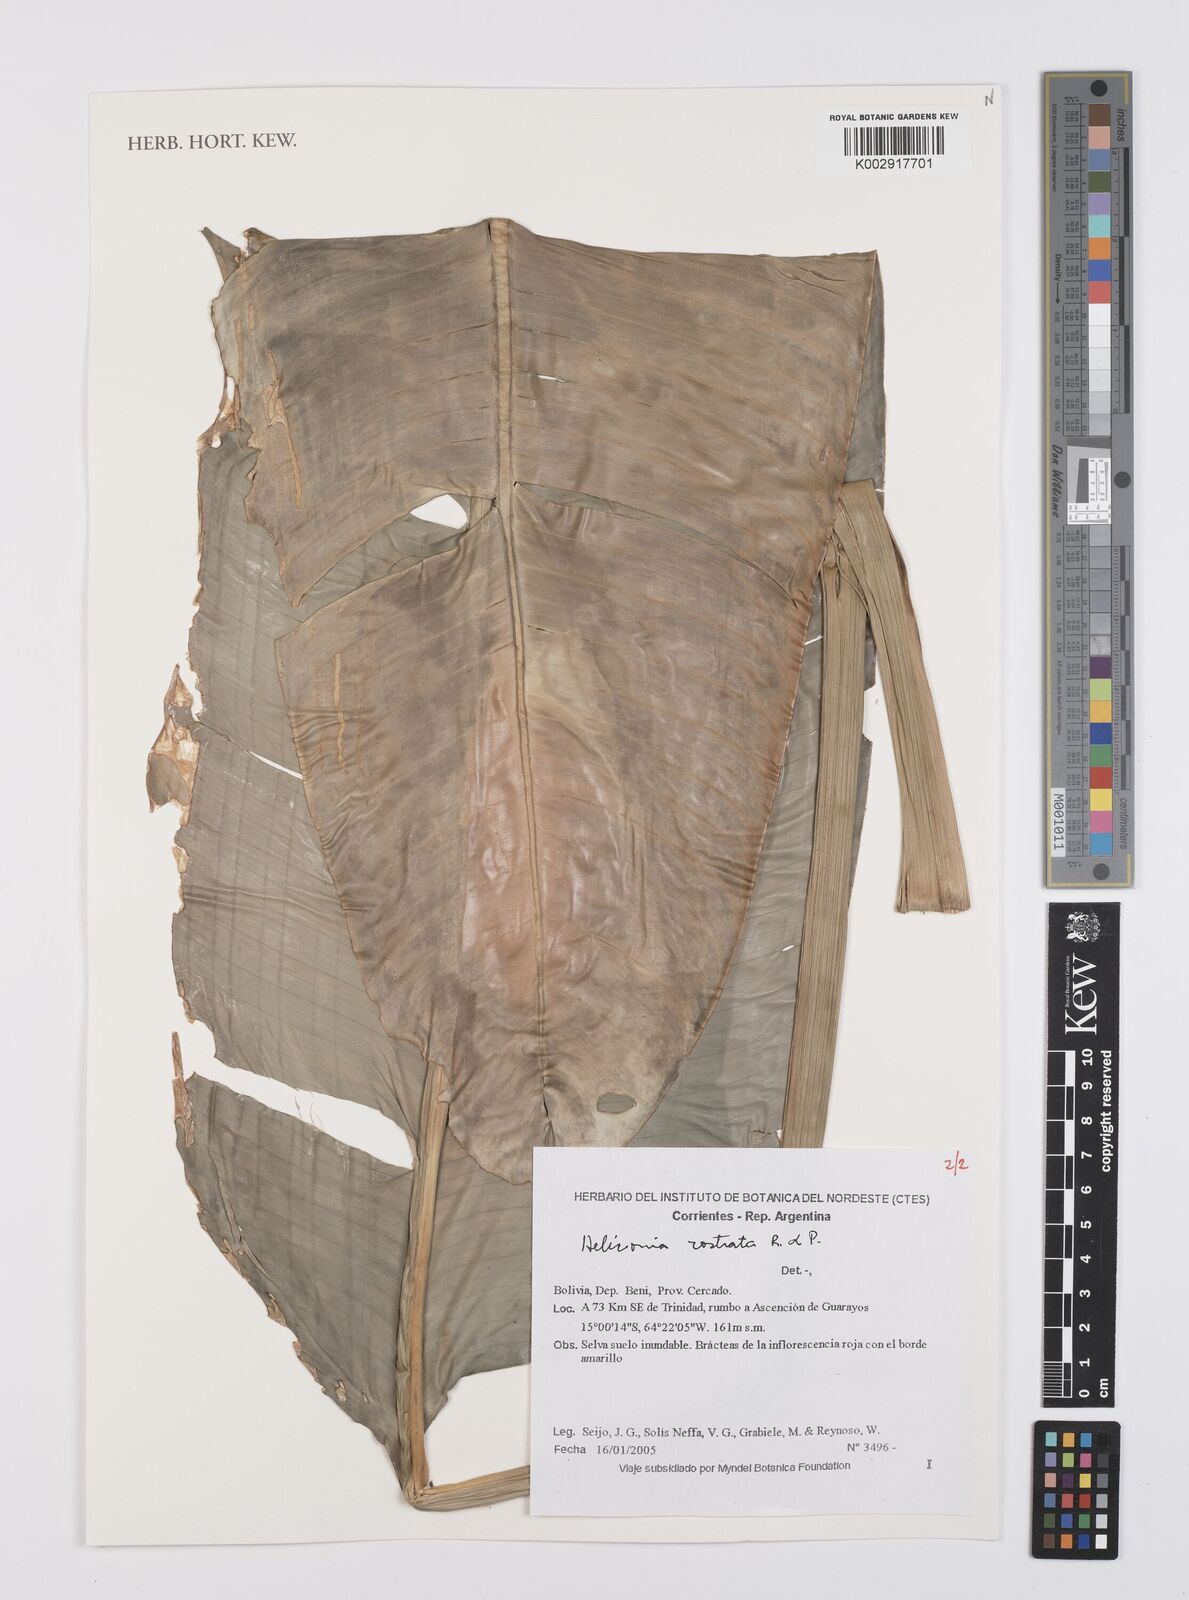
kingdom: Plantae
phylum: Tracheophyta
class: Liliopsida
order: Zingiberales
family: Heliconiaceae
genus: Heliconia
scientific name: Heliconia rostrata
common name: False bird of paradise
